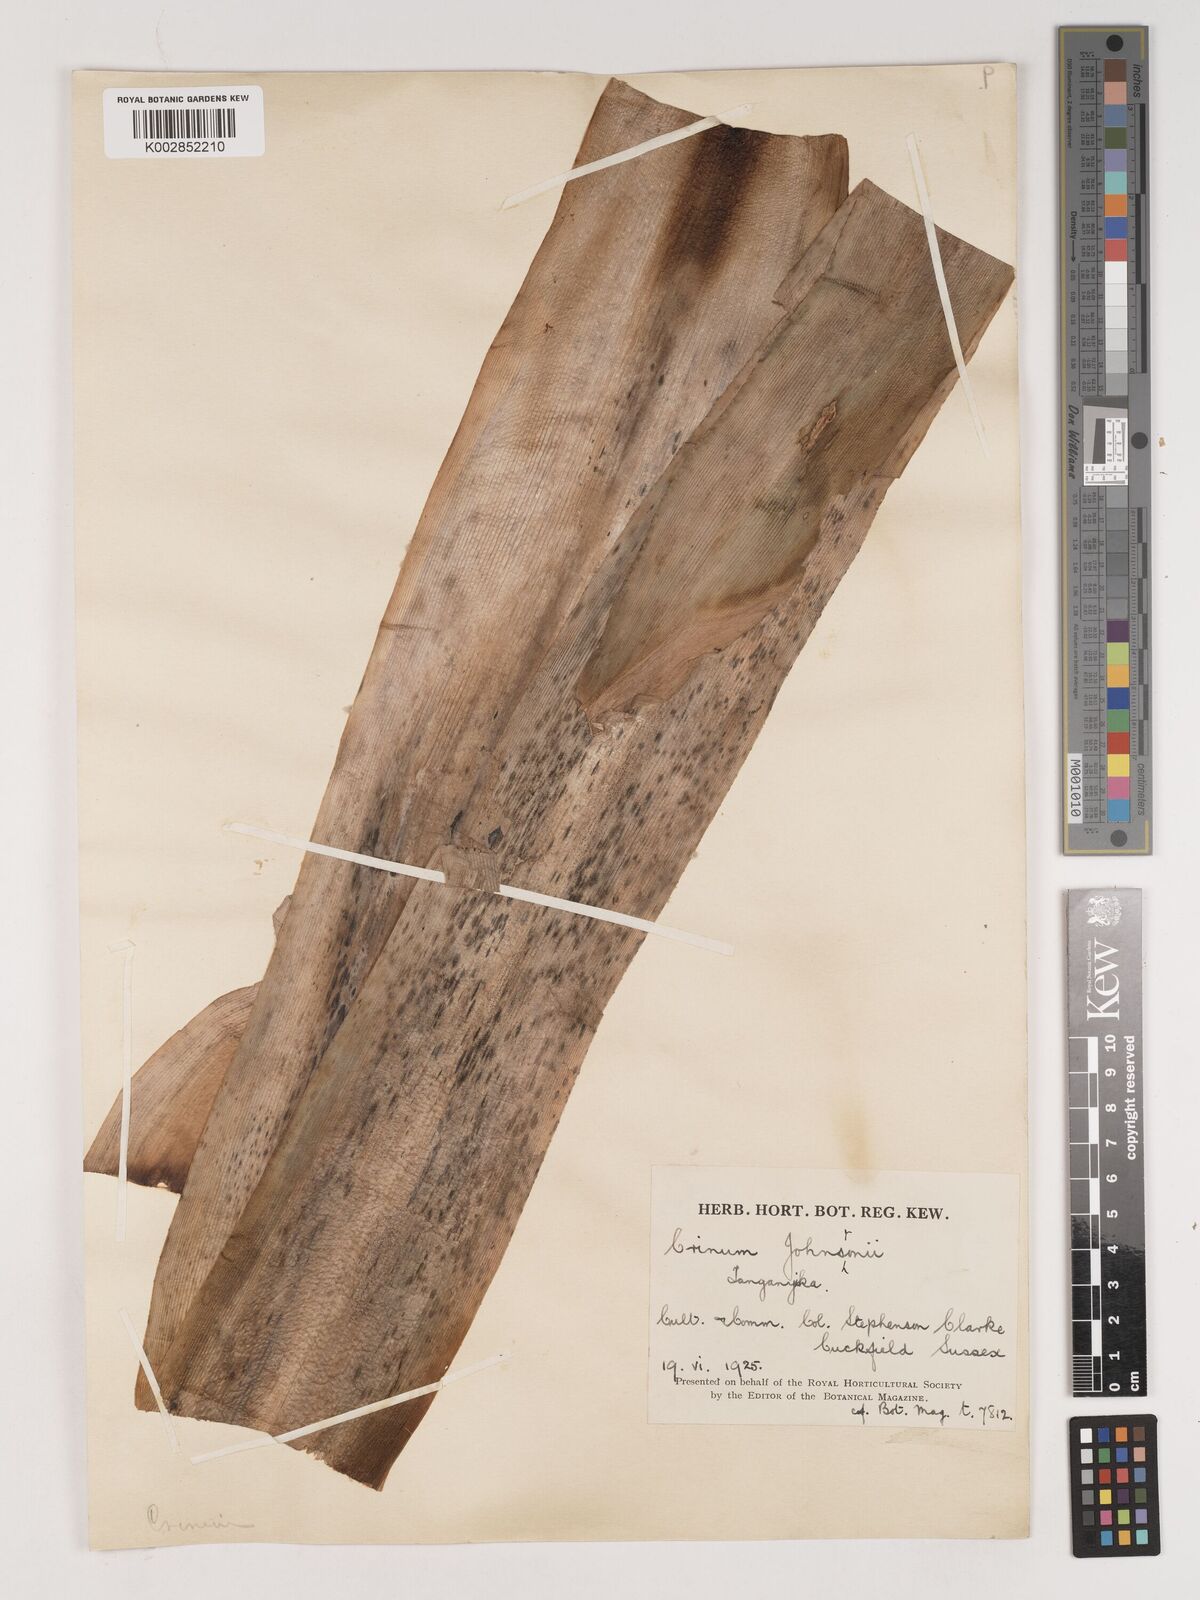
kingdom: Plantae
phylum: Tracheophyta
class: Liliopsida
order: Asparagales
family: Amaryllidaceae
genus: Crinum
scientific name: Crinum kirkii
